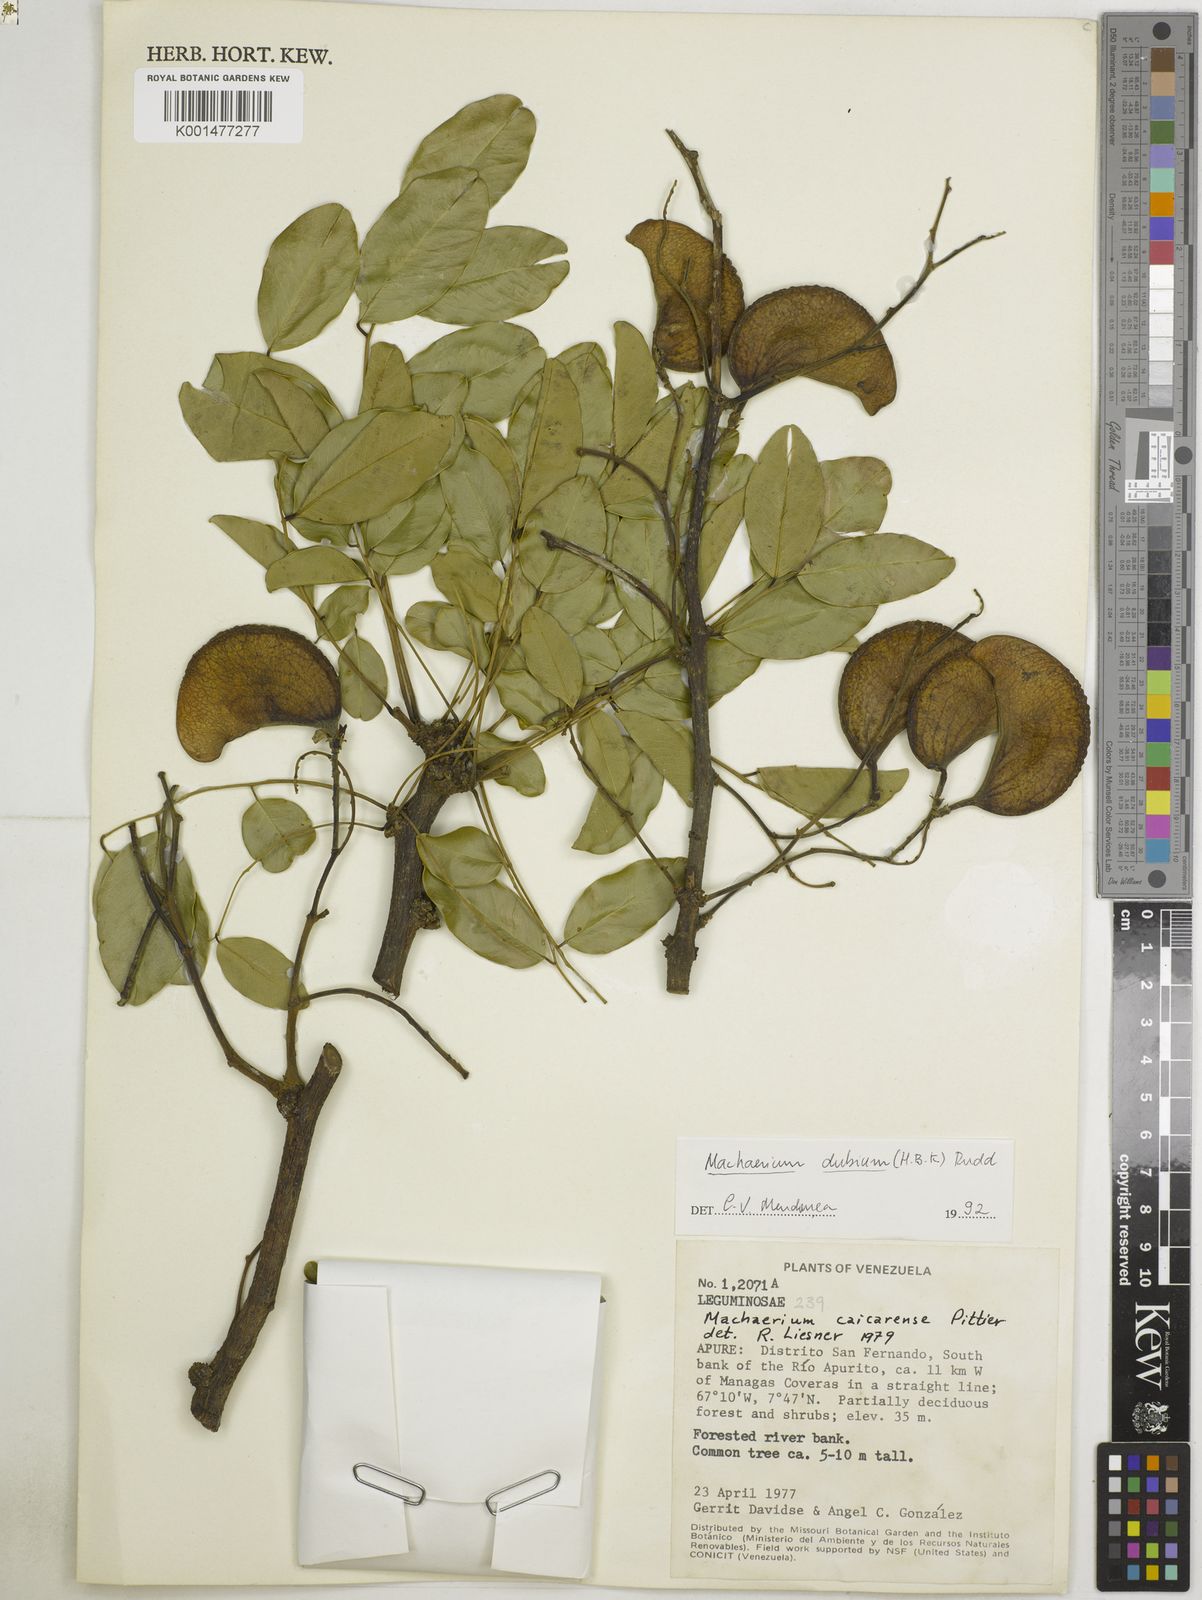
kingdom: Plantae
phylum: Tracheophyta
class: Magnoliopsida
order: Fabales
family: Fabaceae
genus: Machaerium
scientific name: Machaerium dubium
